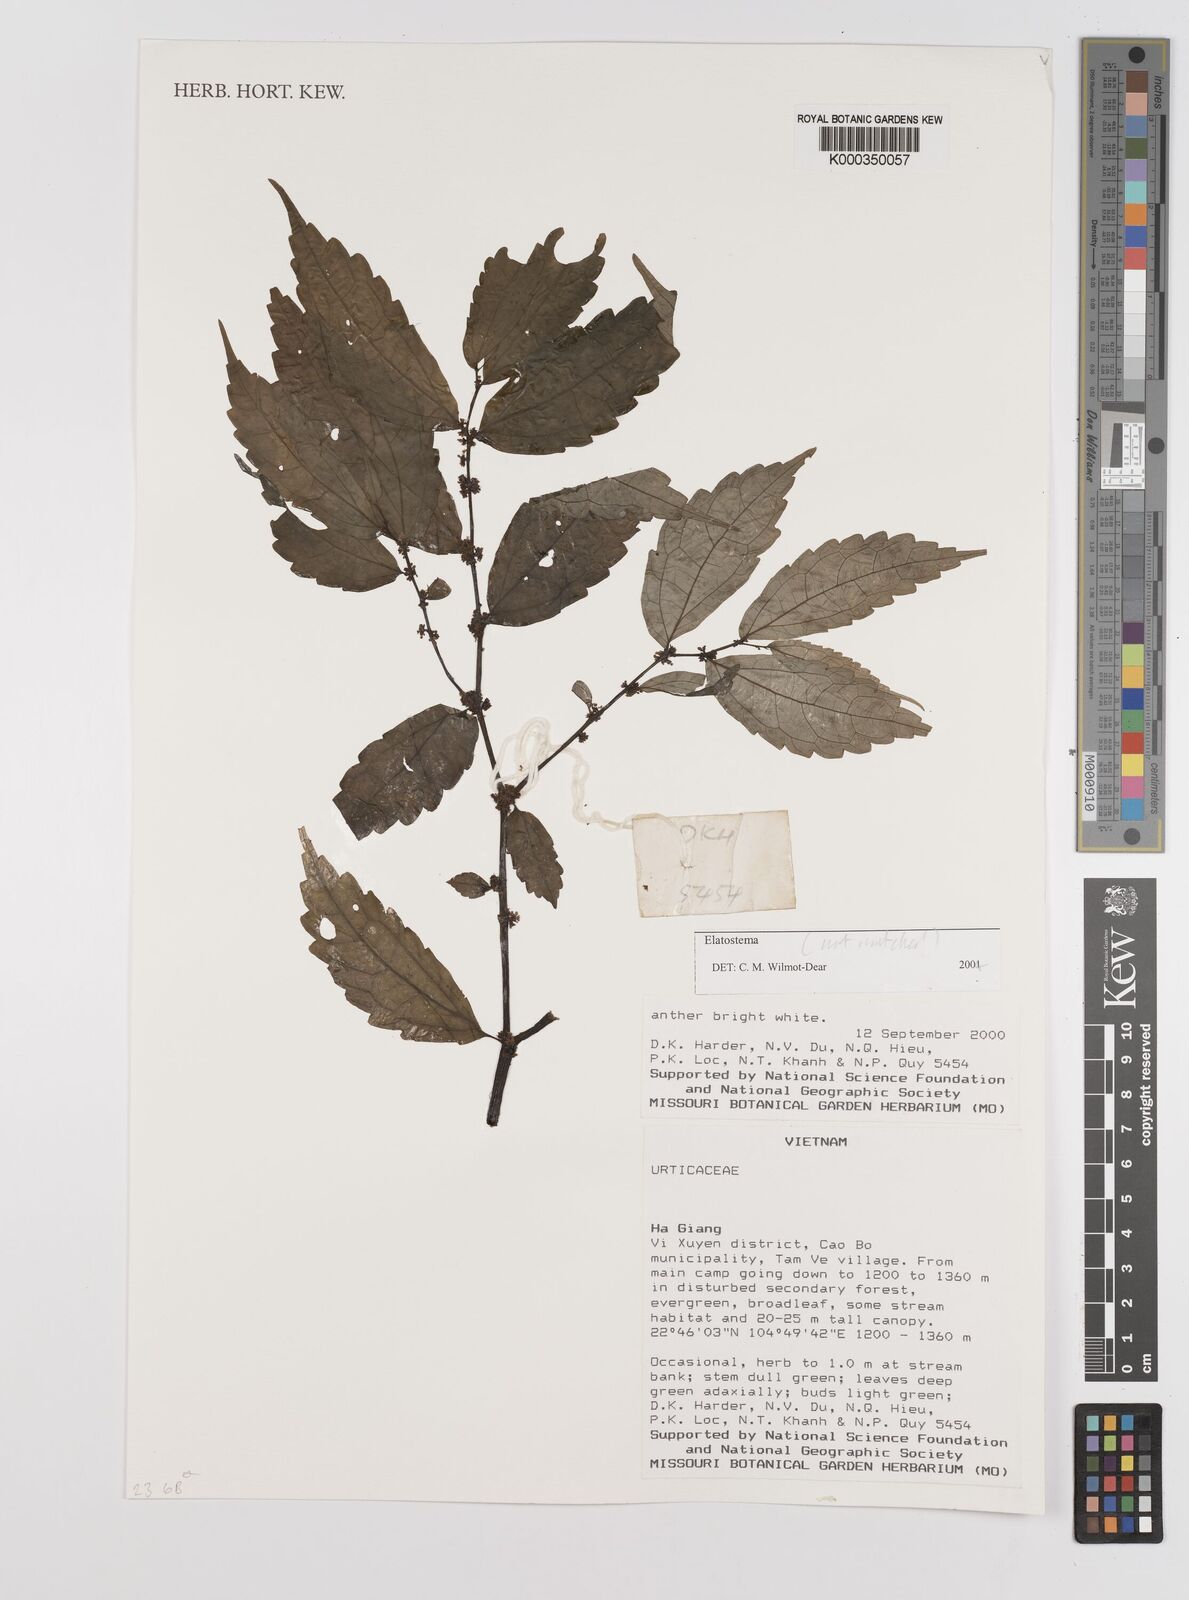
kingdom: Plantae
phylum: Tracheophyta
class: Magnoliopsida
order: Rosales
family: Urticaceae
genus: Elatostema
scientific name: Elatostema
